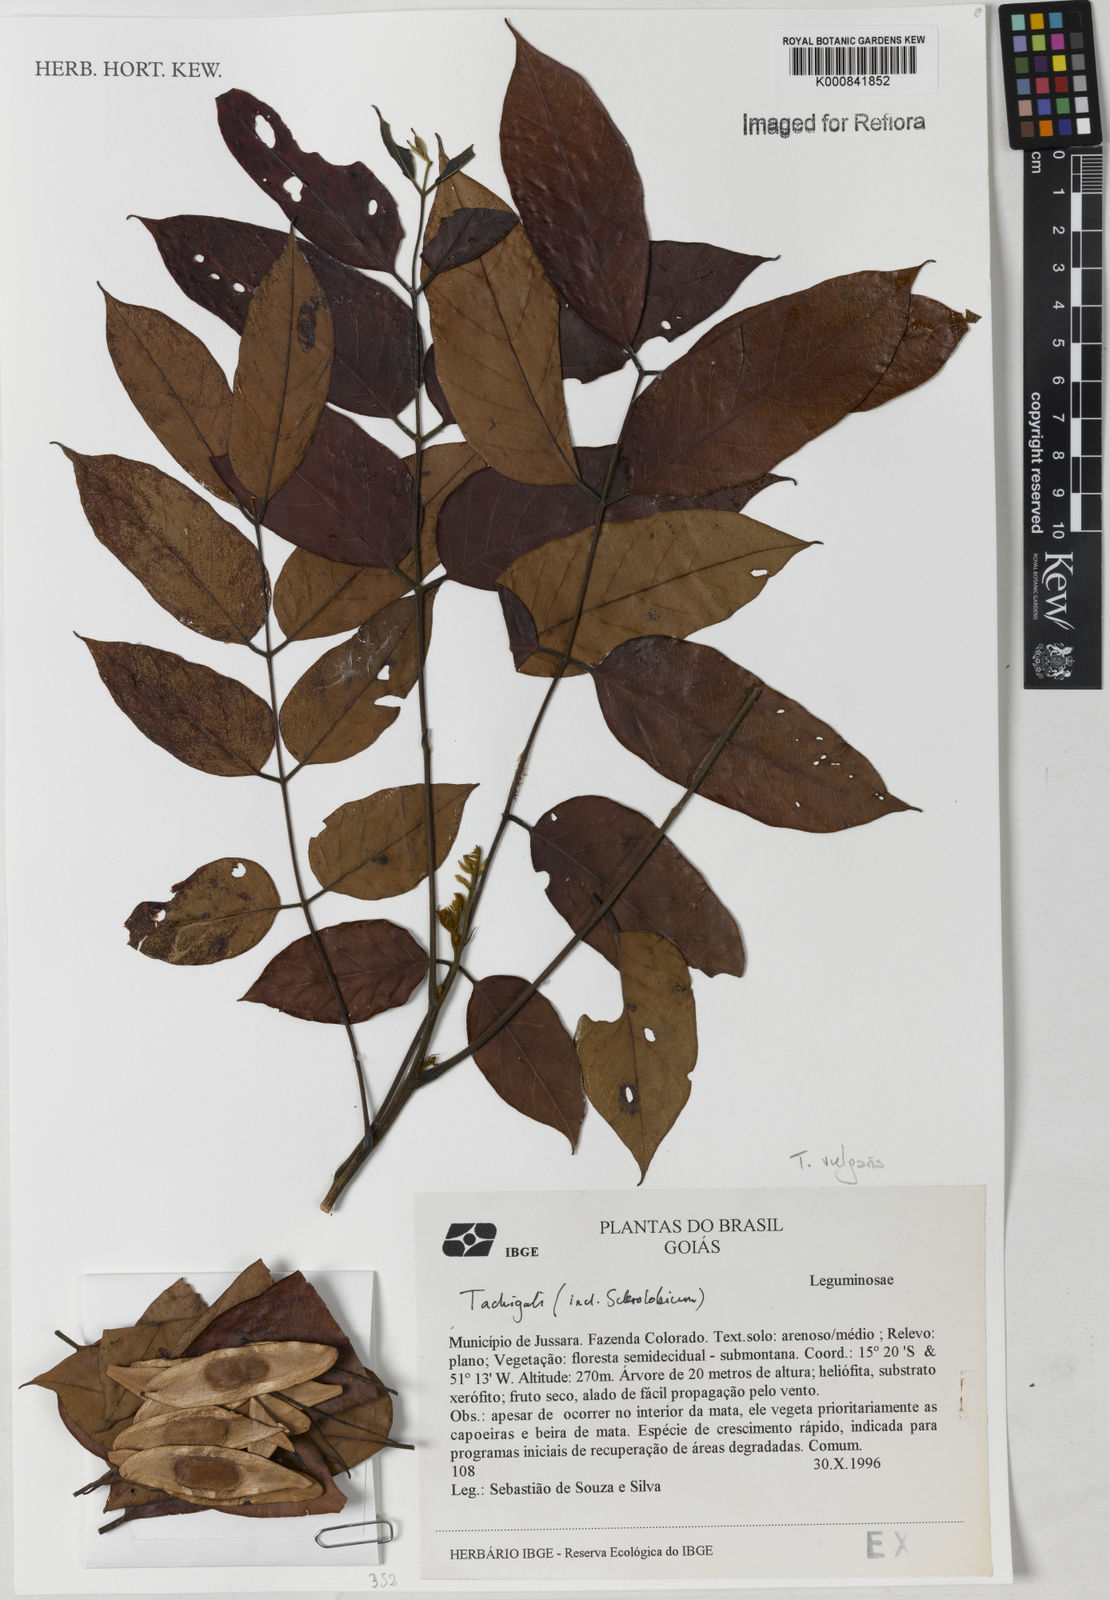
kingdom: Plantae
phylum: Tracheophyta
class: Magnoliopsida
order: Fabales
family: Fabaceae
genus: Tachigali
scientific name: Tachigali vulgaris
